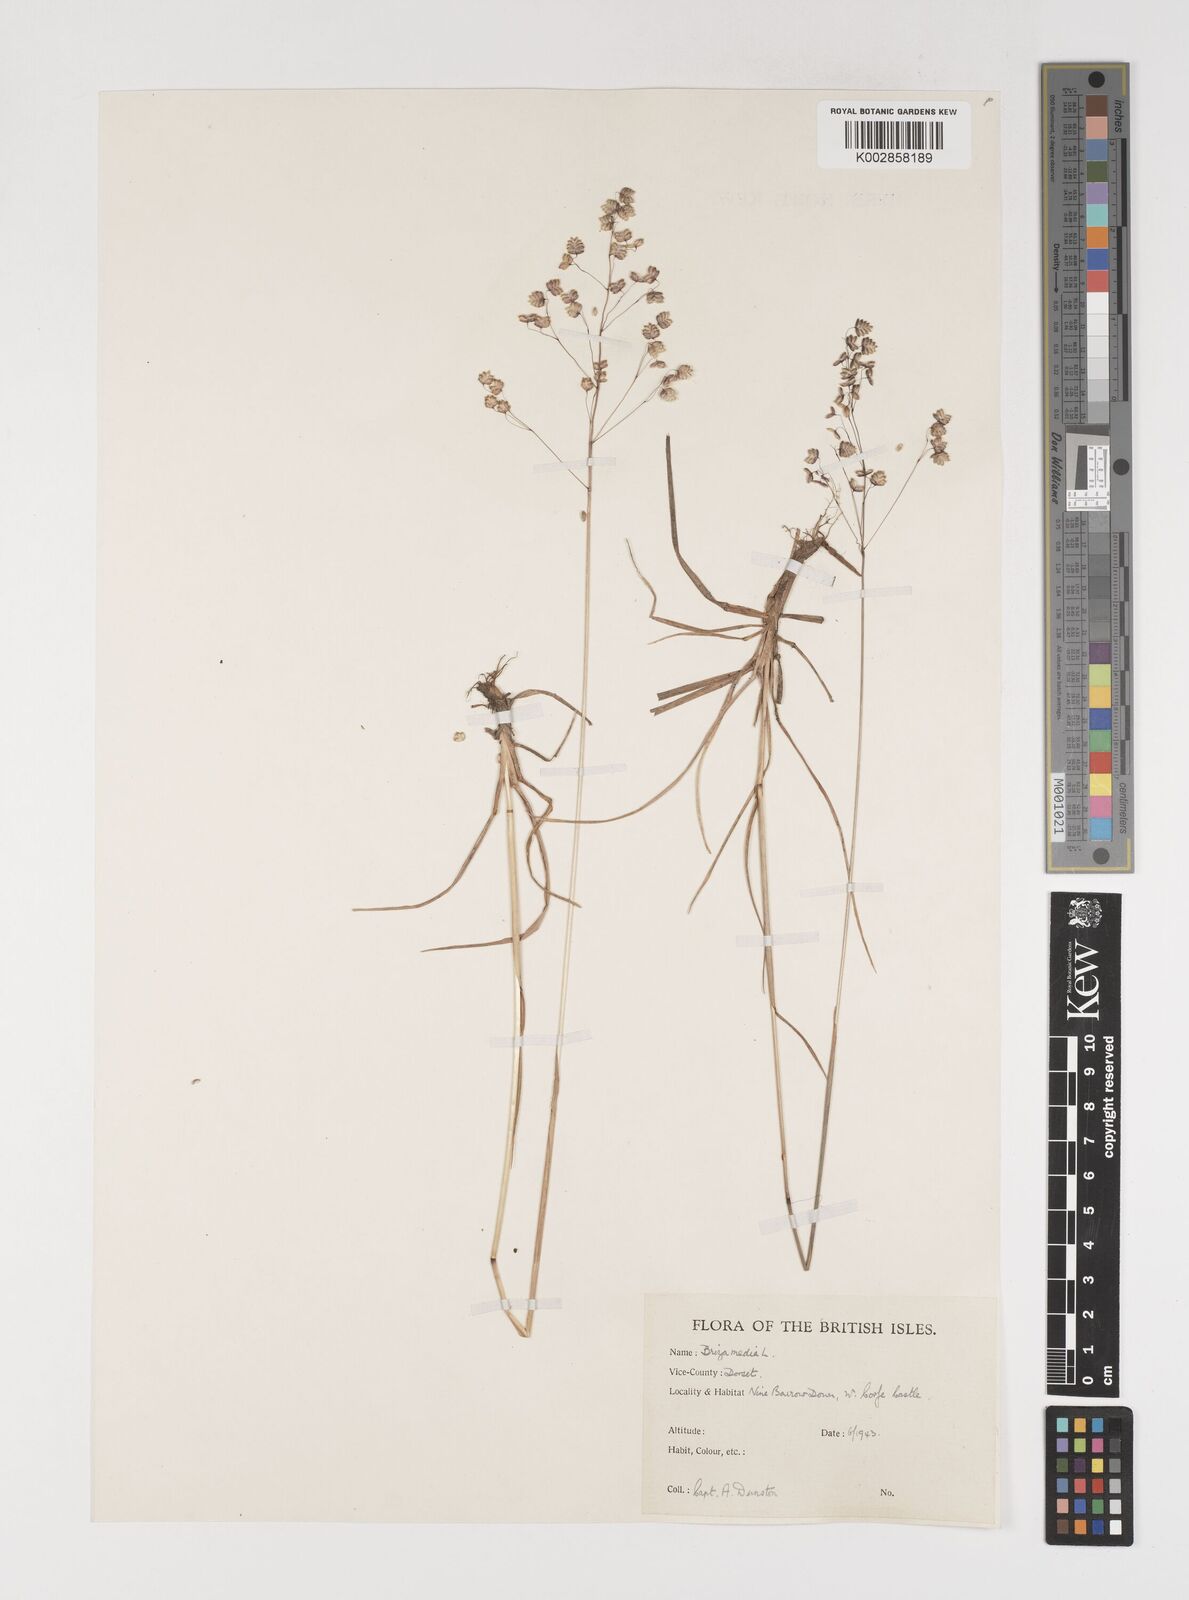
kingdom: Plantae
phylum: Tracheophyta
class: Liliopsida
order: Poales
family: Poaceae
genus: Briza
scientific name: Briza media
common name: Quaking grass
